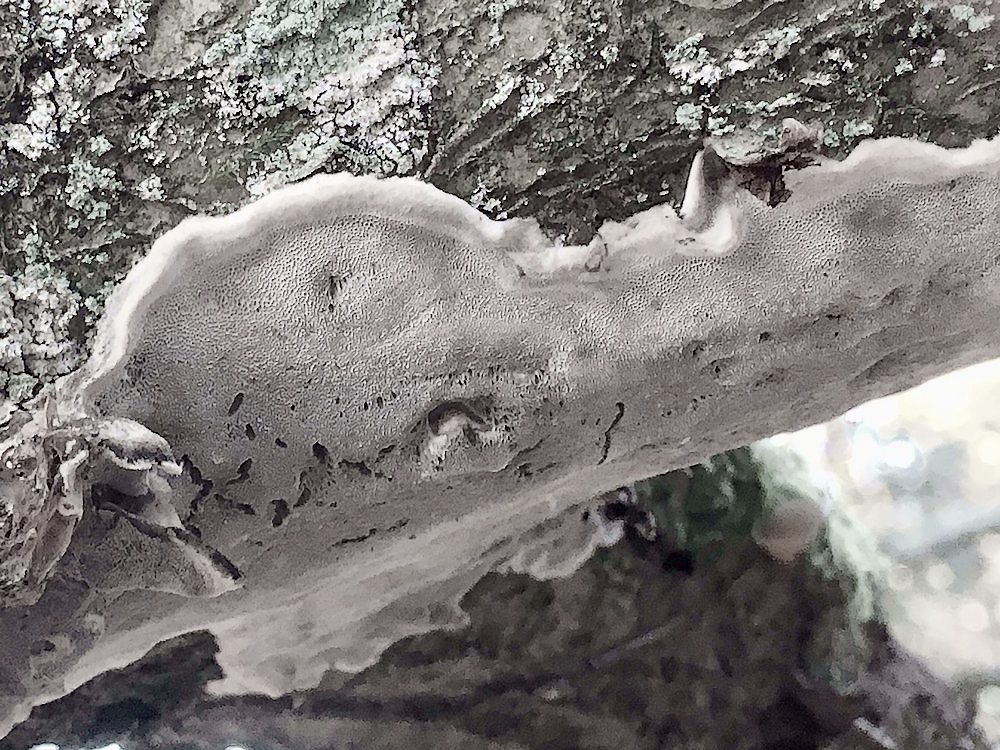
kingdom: Fungi
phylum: Basidiomycota
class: Agaricomycetes
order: Polyporales
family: Phanerochaetaceae
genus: Bjerkandera
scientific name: Bjerkandera adusta
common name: sveden sodporesvamp
